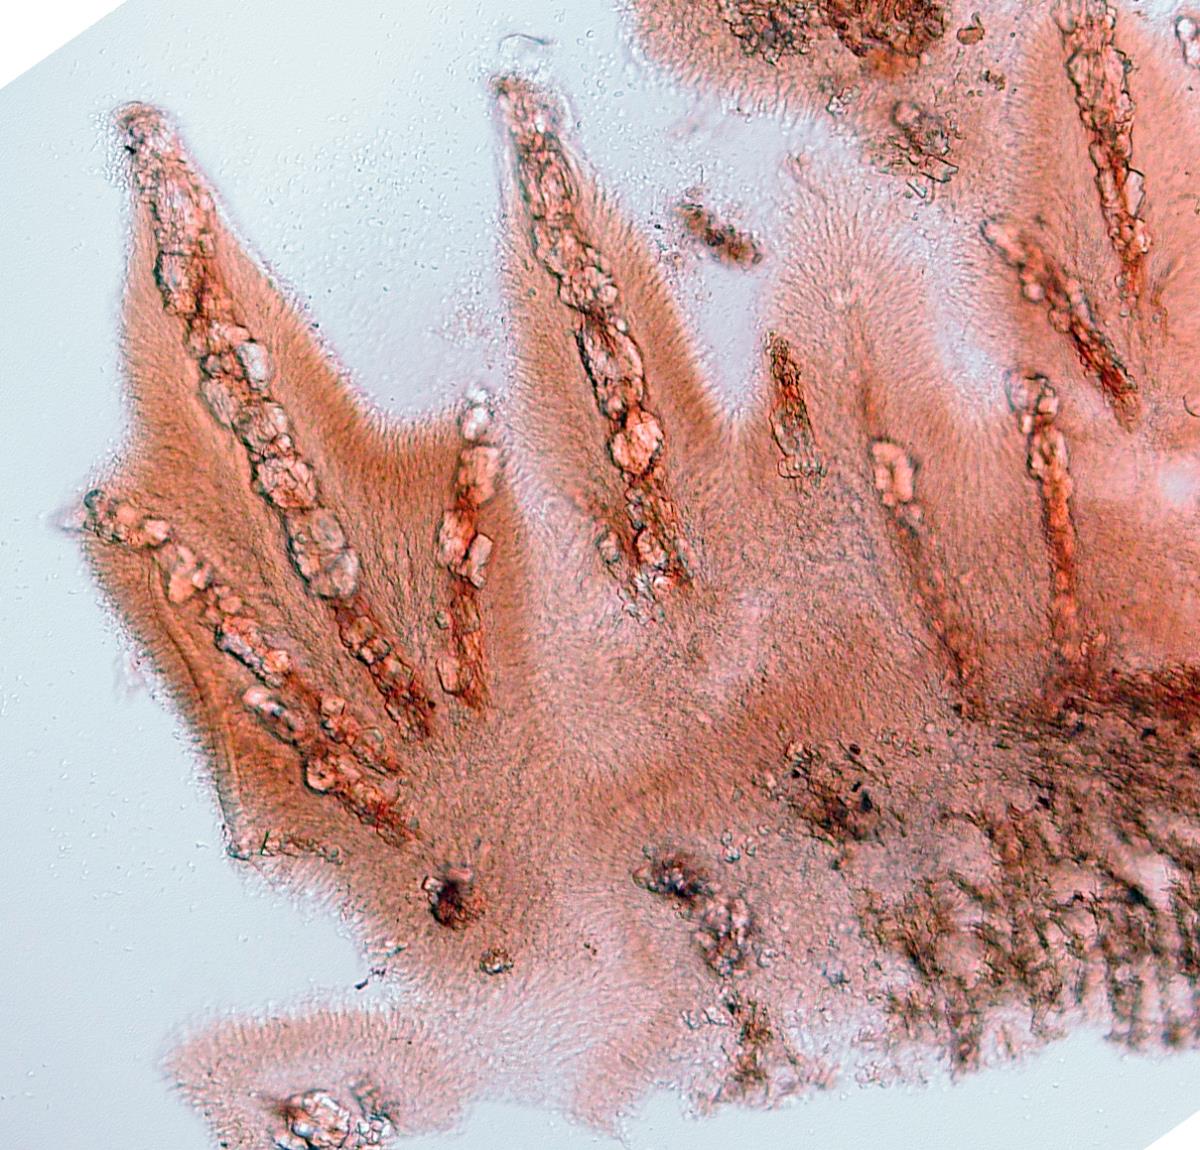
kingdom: Fungi
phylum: Basidiomycota
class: Agaricomycetes
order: Polyporales
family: Meruliaceae
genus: Phlebia
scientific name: Phlebia
